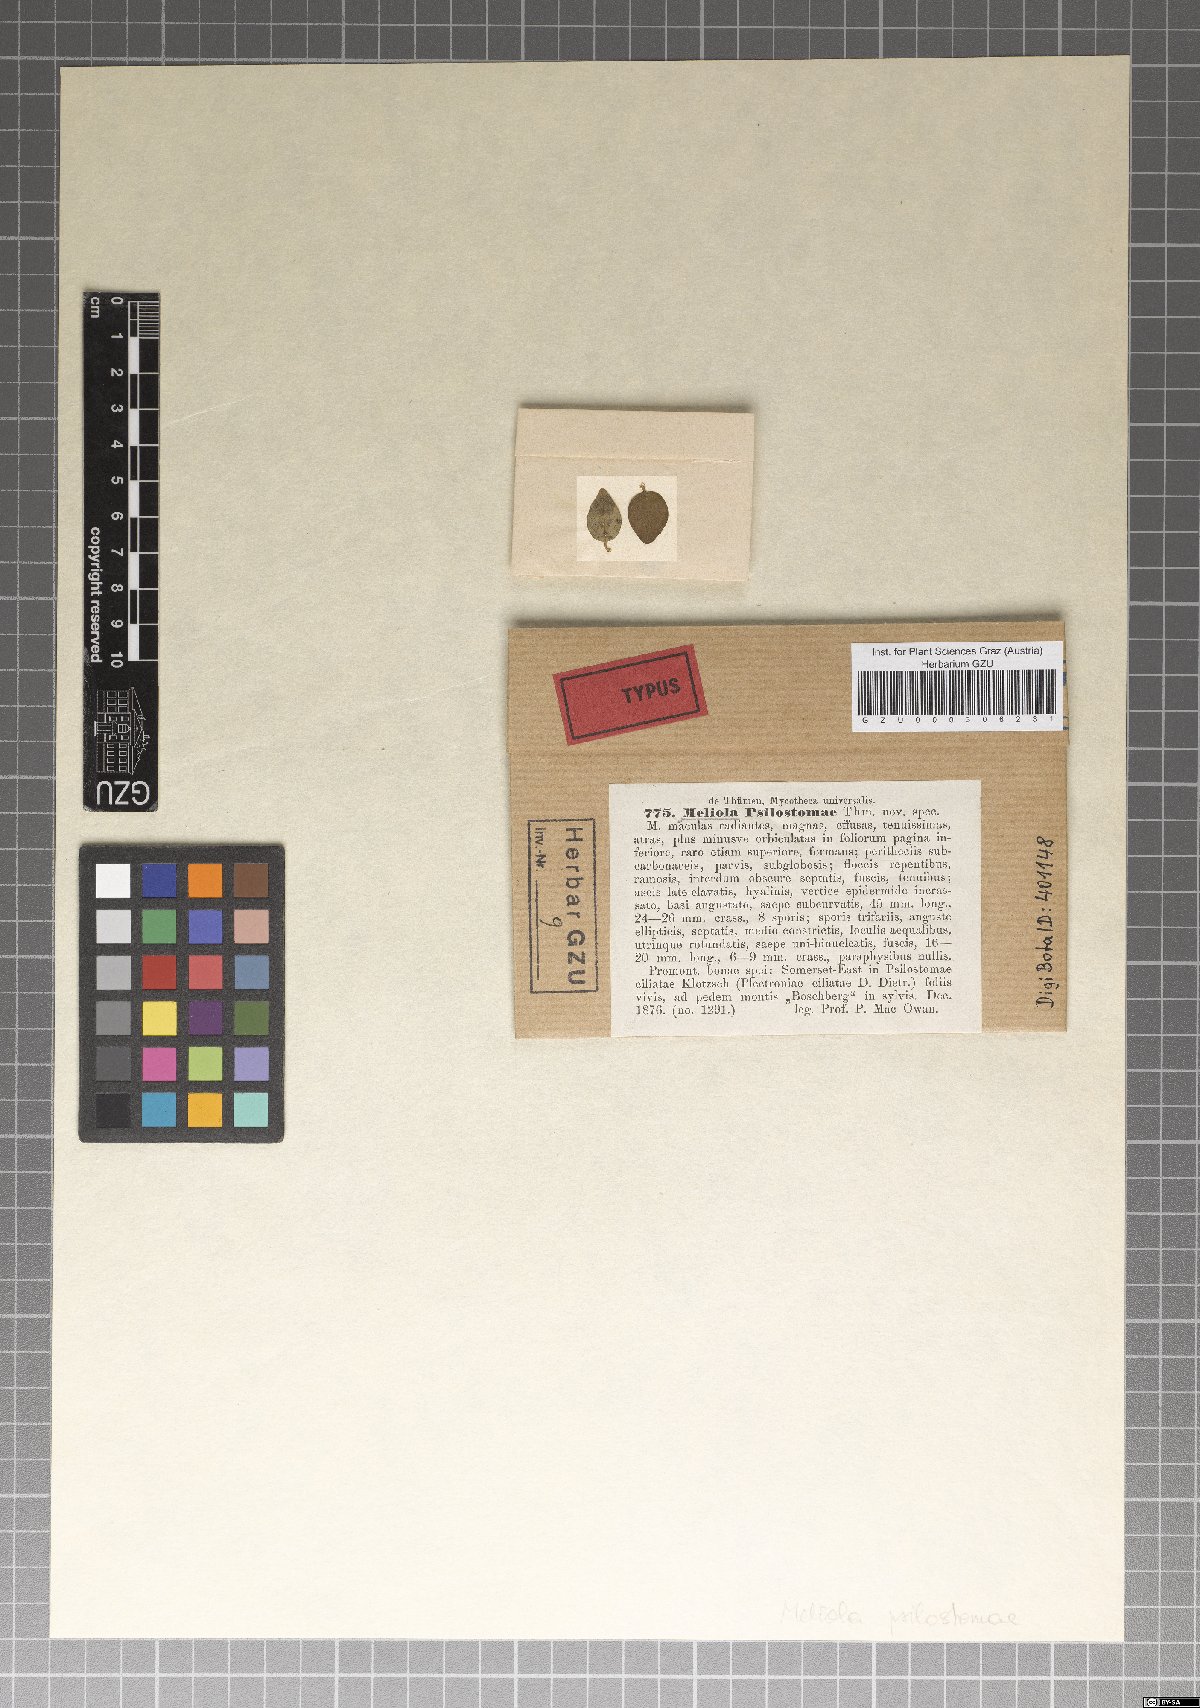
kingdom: Fungi
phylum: Ascomycota
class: Dothideomycetes
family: Balladynaceae
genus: Balladyna
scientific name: Balladyna psilostomatis
